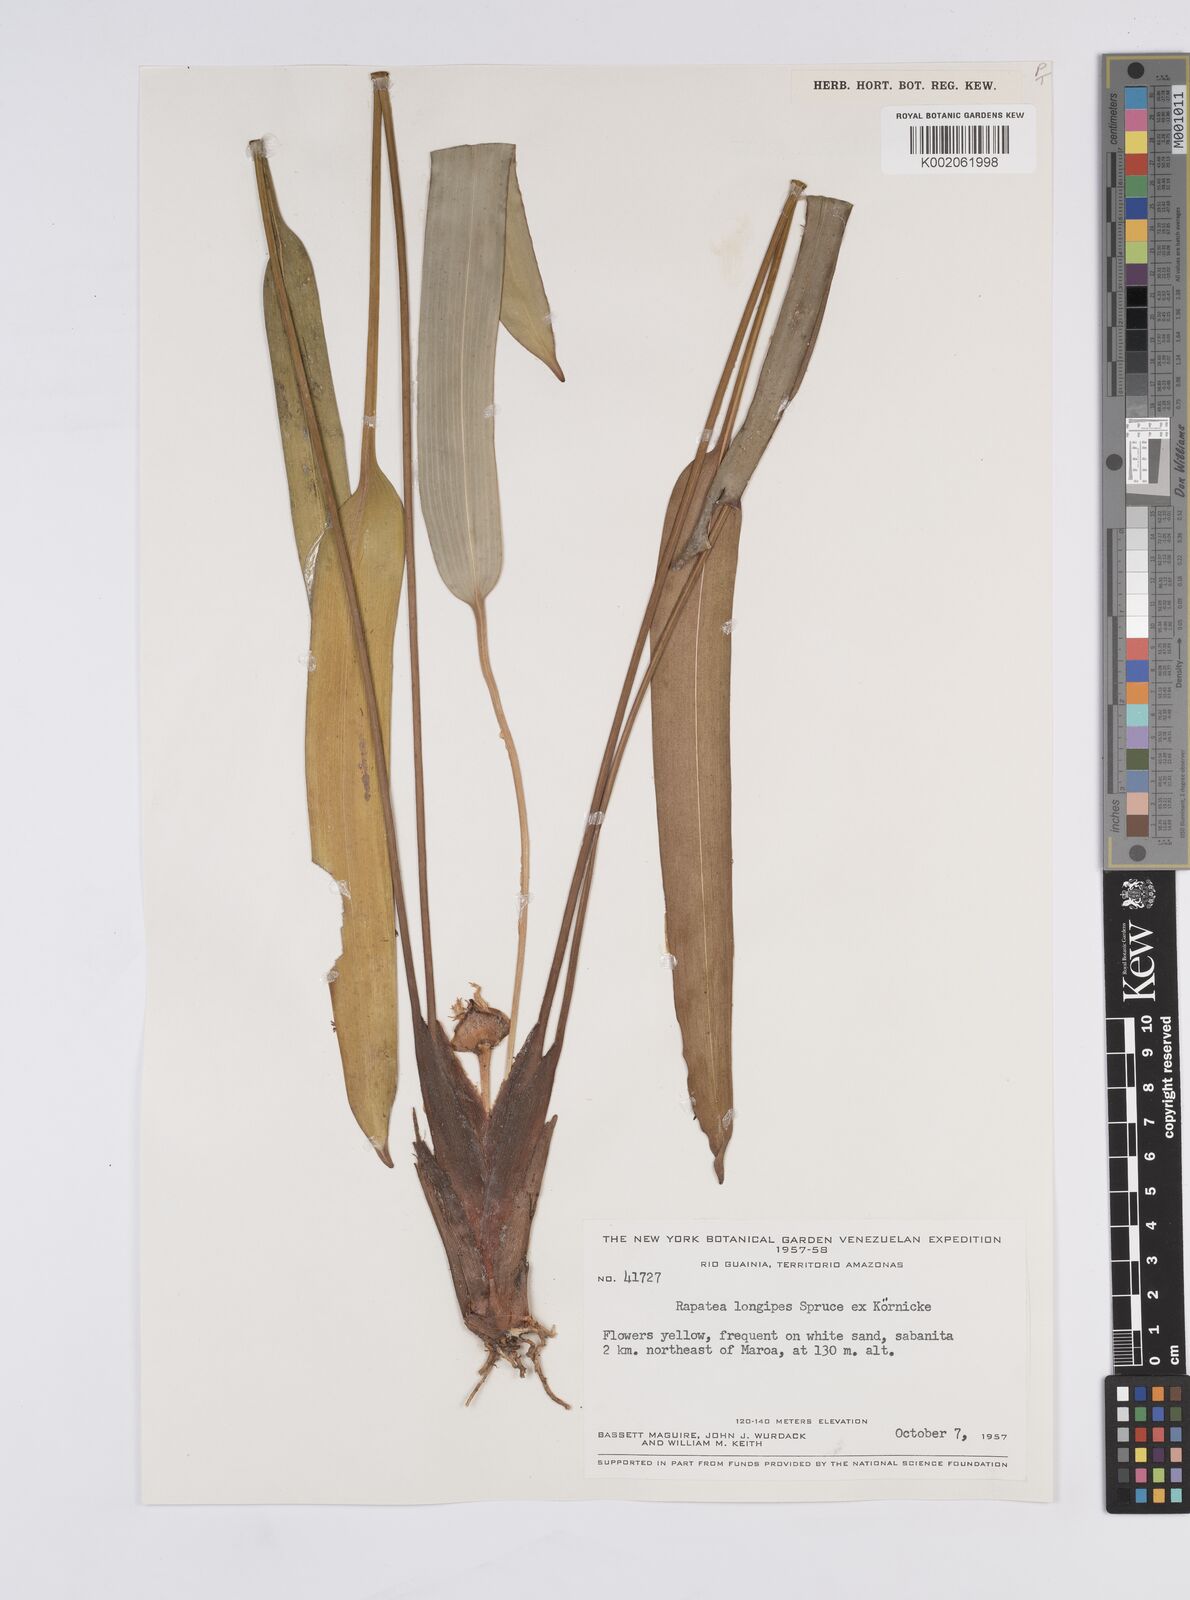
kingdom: Plantae
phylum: Tracheophyta
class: Liliopsida
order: Poales
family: Rapateaceae
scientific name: Rapateaceae
